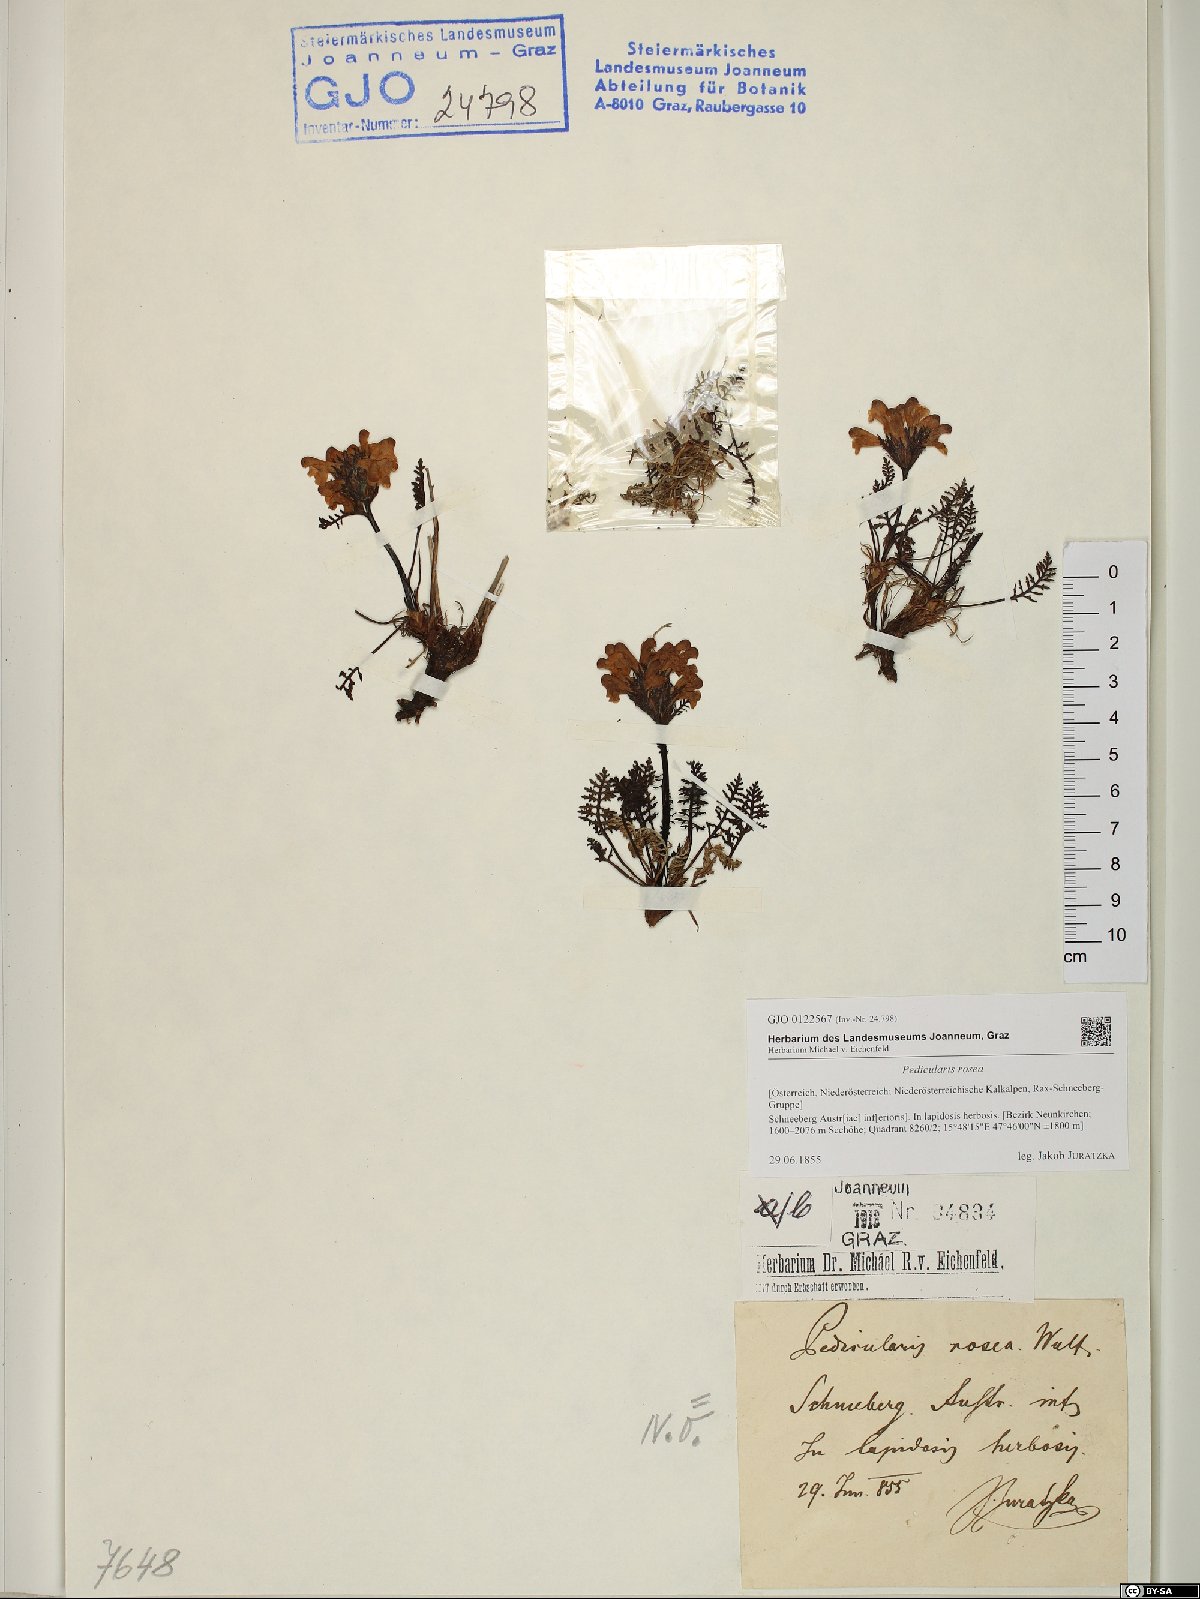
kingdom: Plantae
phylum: Tracheophyta
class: Magnoliopsida
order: Lamiales
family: Orobanchaceae
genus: Pedicularis
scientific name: Pedicularis rosea
